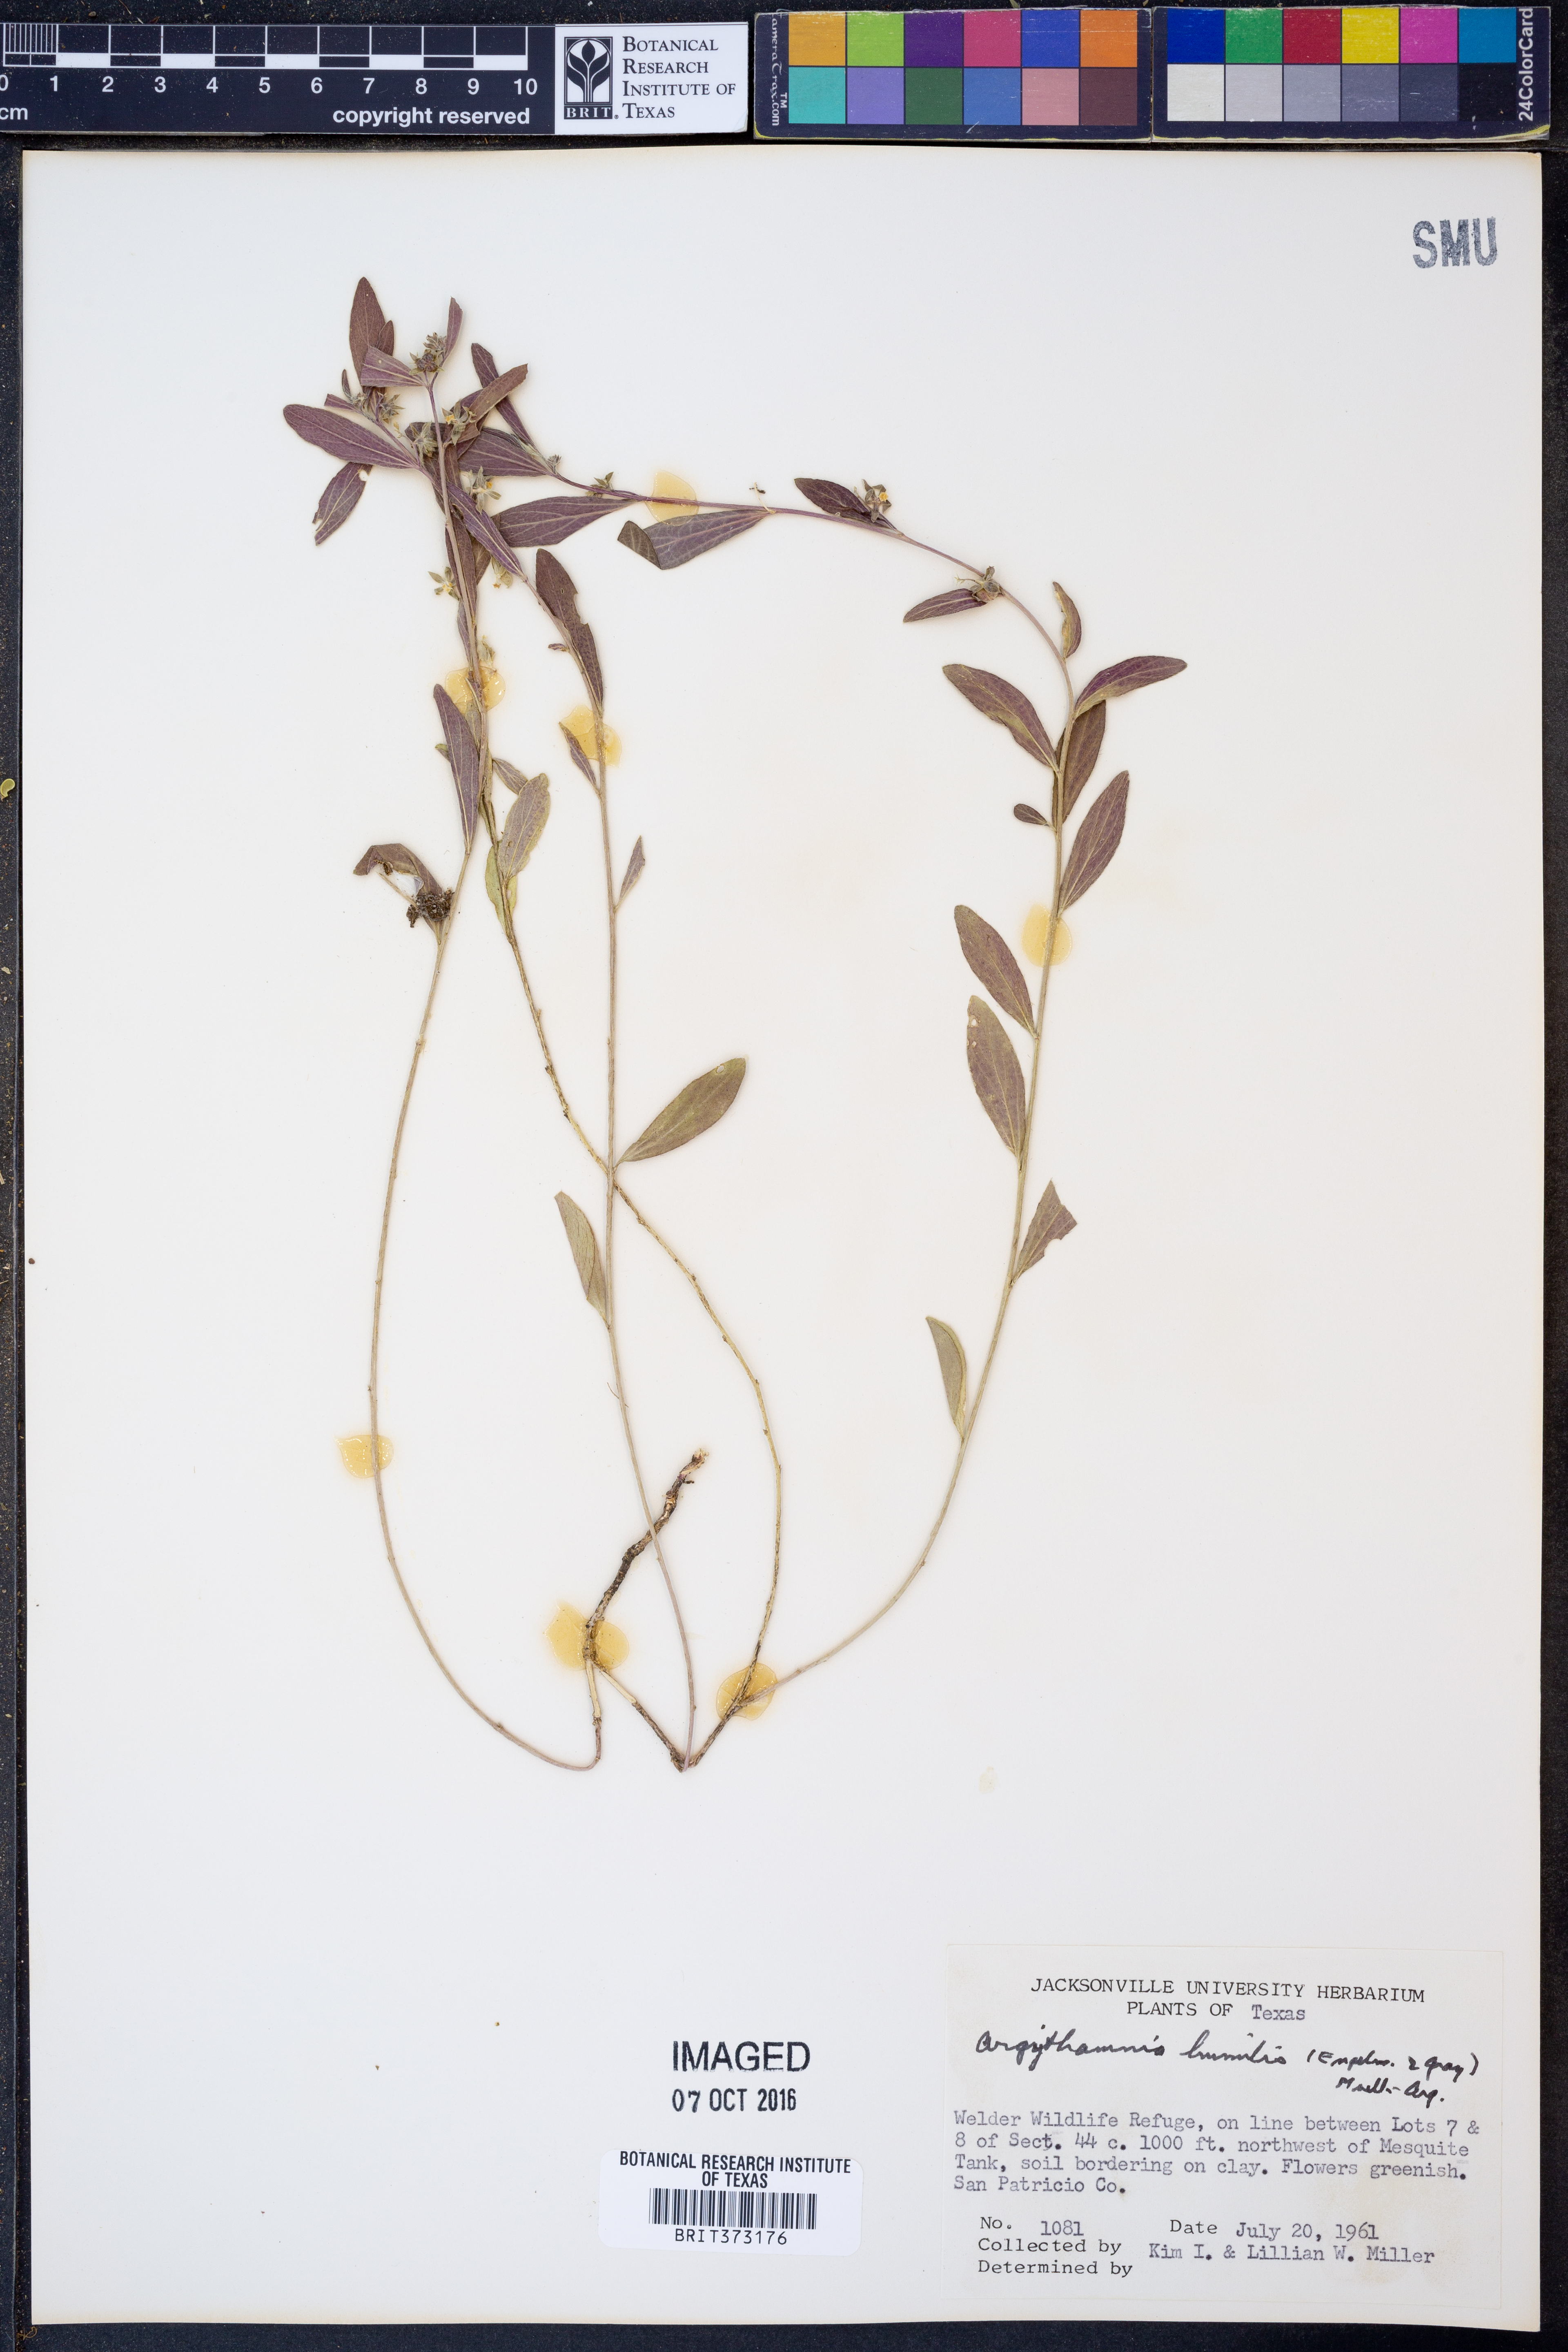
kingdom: Plantae
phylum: Tracheophyta
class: Magnoliopsida
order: Malpighiales
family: Euphorbiaceae
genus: Ditaxis
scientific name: Ditaxis humilis
